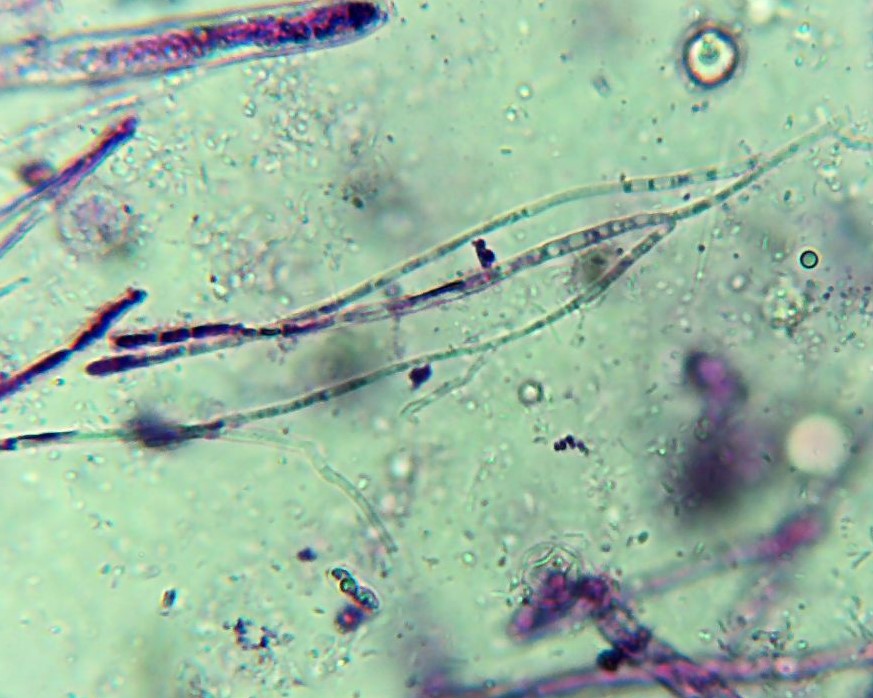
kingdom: Fungi
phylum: Ascomycota
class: Leotiomycetes
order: Helotiales
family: Rutstroemiaceae
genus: Rutstroemia
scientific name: Rutstroemia firma
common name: gren-brunskive
